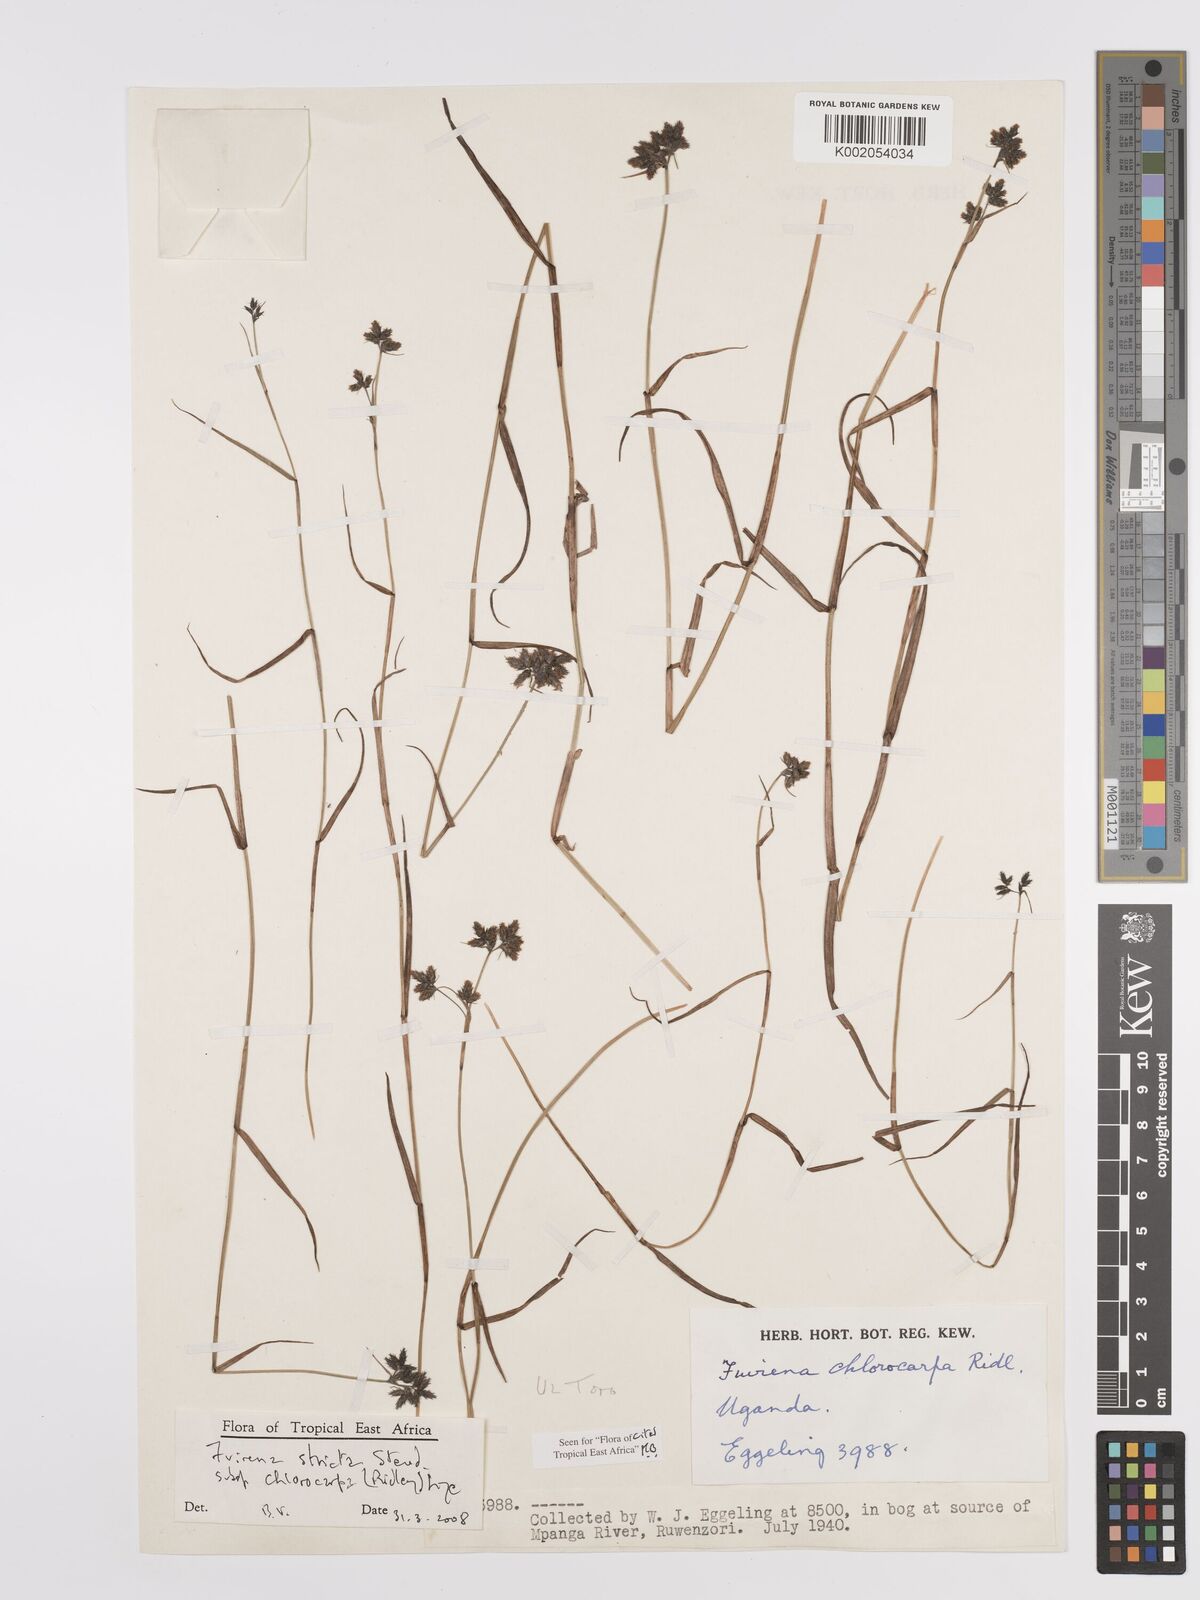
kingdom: Plantae
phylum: Tracheophyta
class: Liliopsida
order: Poales
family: Cyperaceae
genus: Fuirena
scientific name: Fuirena stricta
